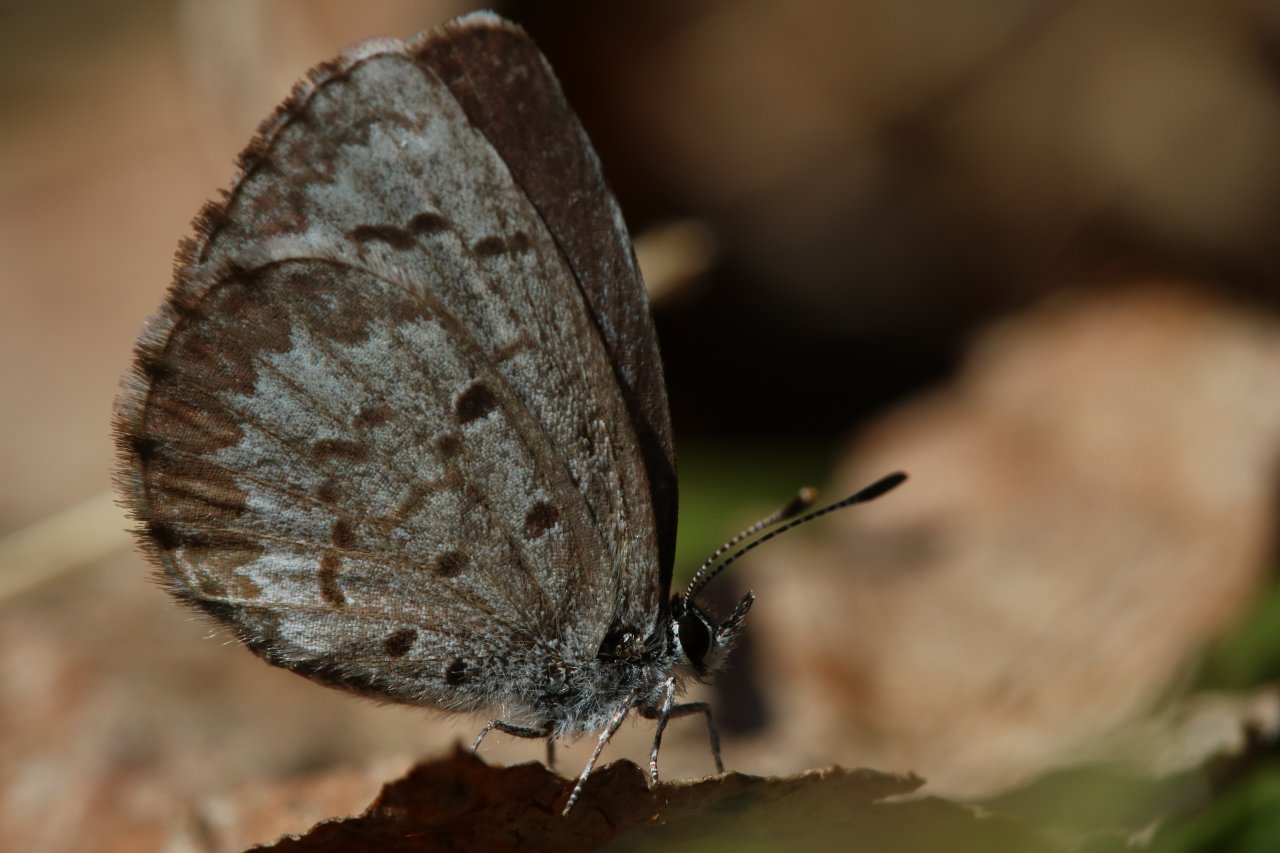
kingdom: Animalia
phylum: Arthropoda
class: Insecta
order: Lepidoptera
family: Lycaenidae
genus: Celastrina
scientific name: Celastrina lucia
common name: Northern Spring Azure
